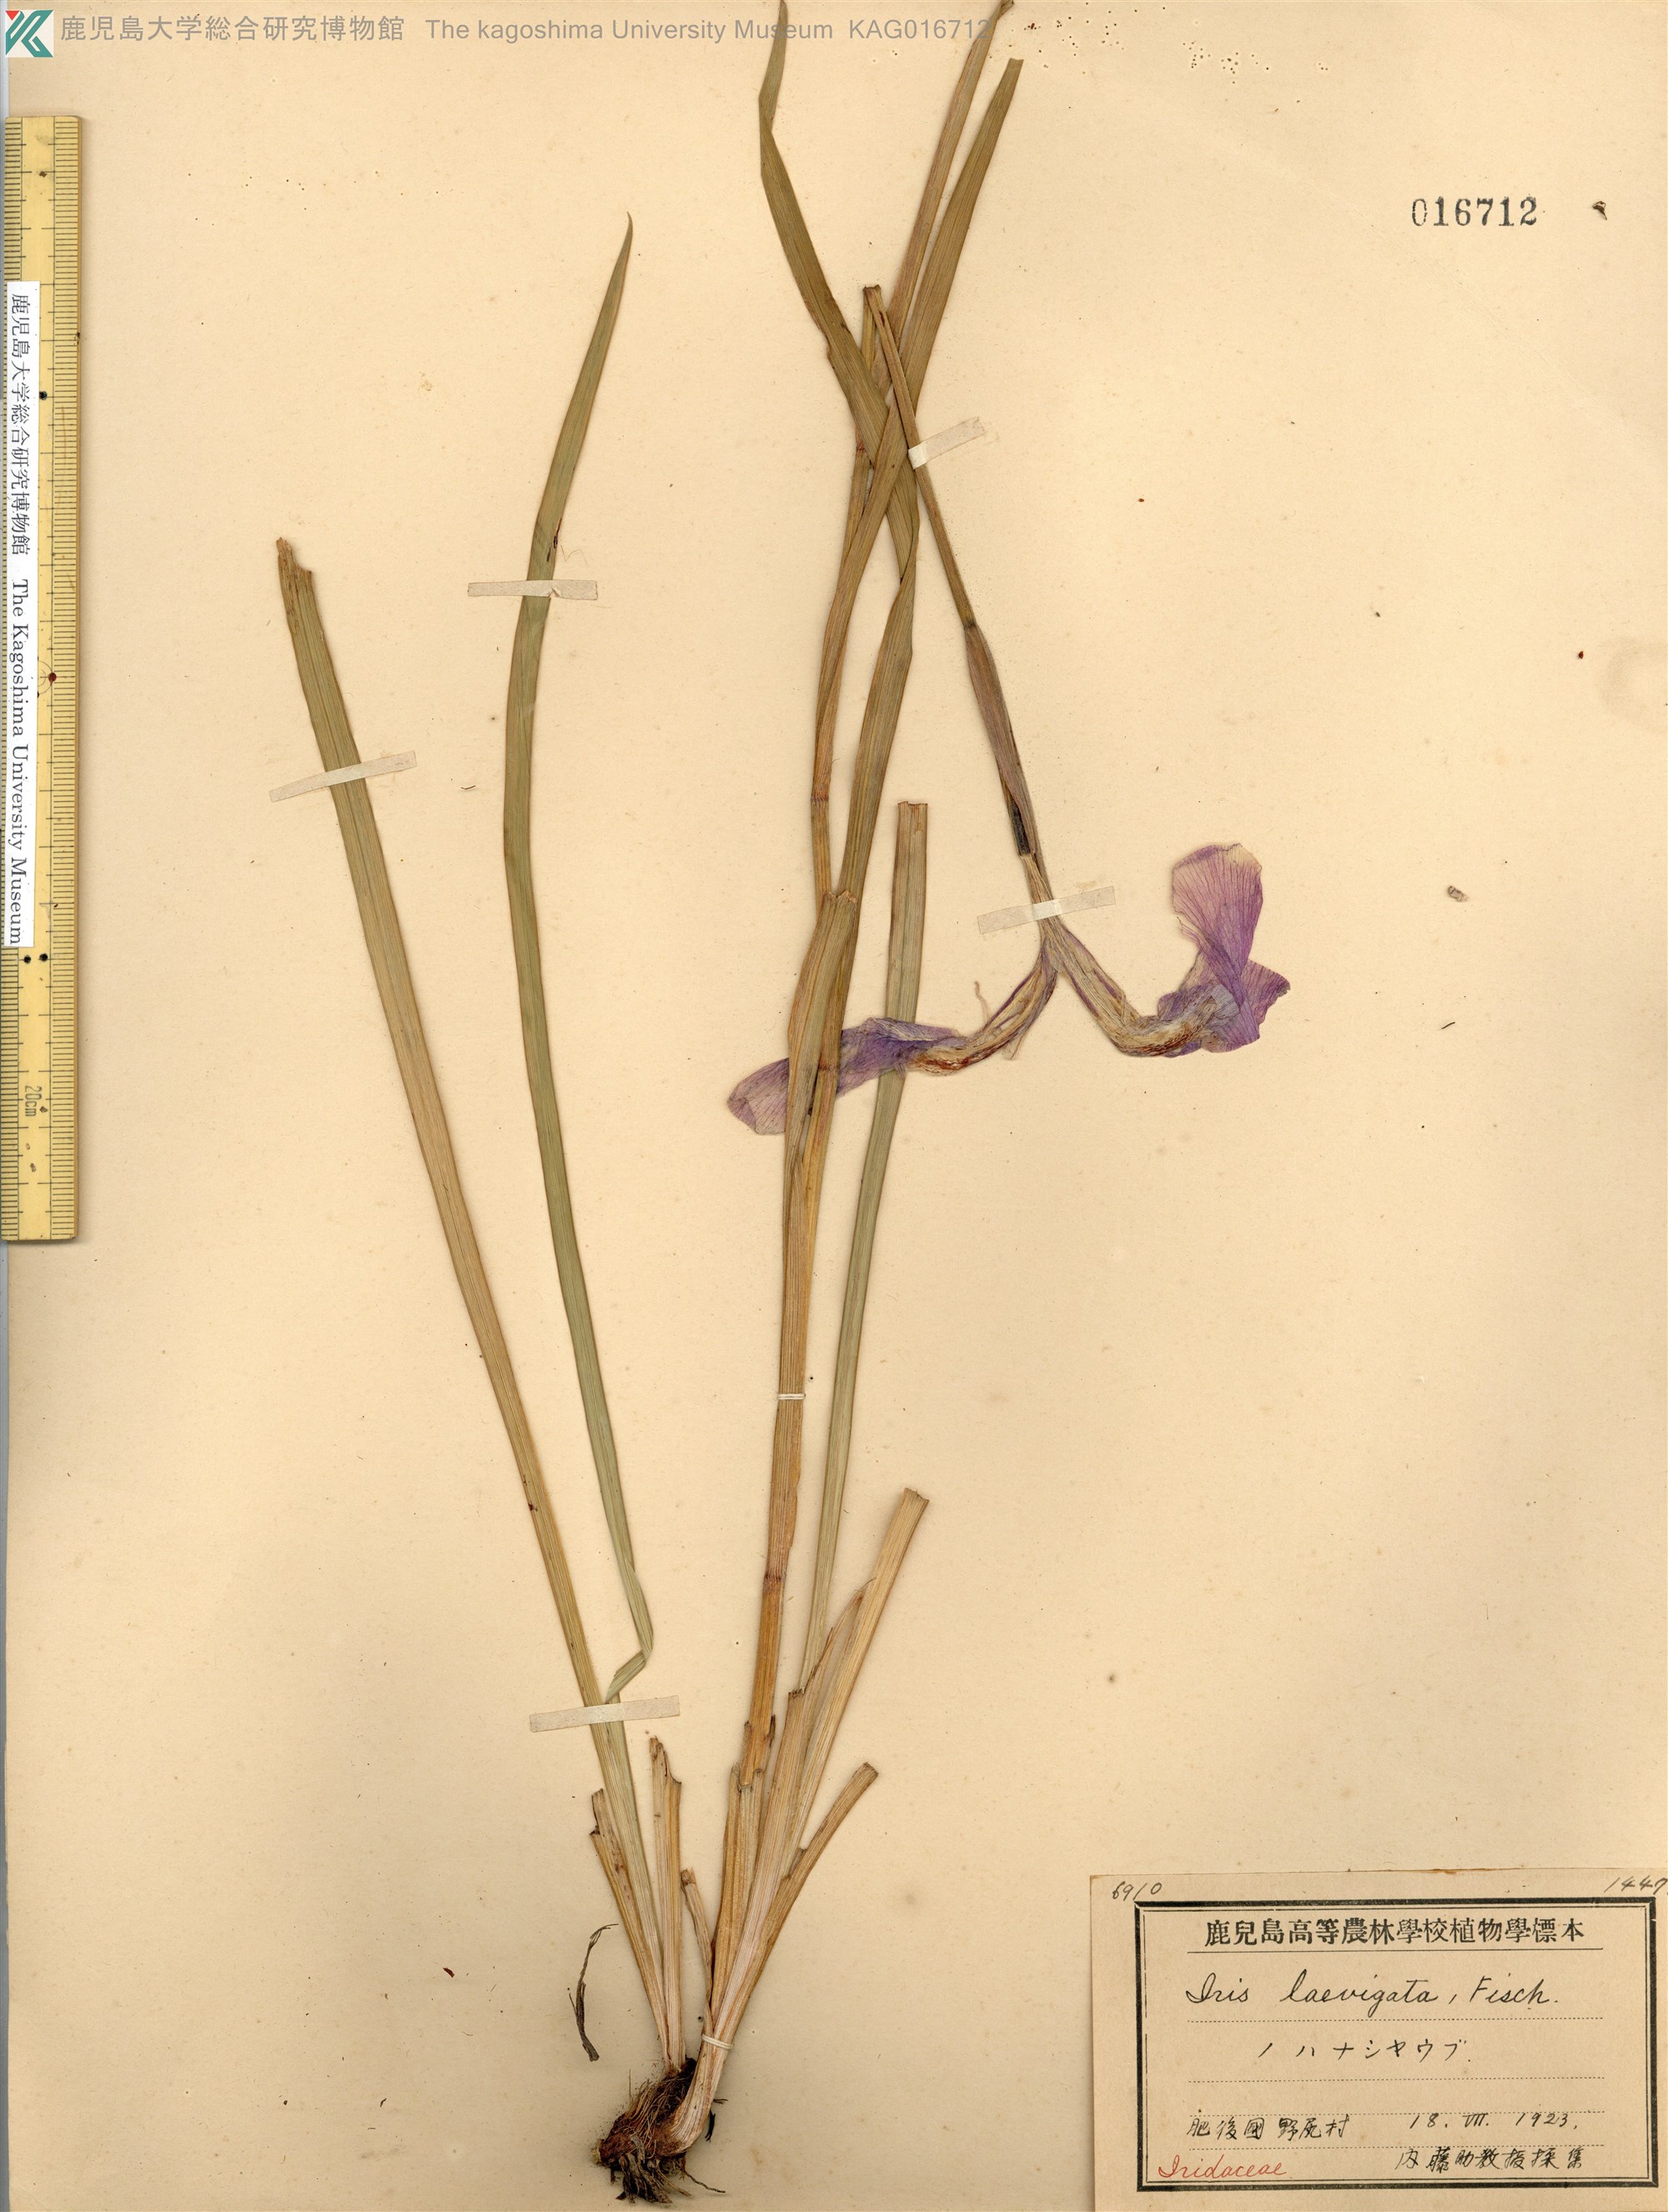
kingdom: Plantae
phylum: Tracheophyta
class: Liliopsida
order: Asparagales
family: Iridaceae
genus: Iris
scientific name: Iris ensata
